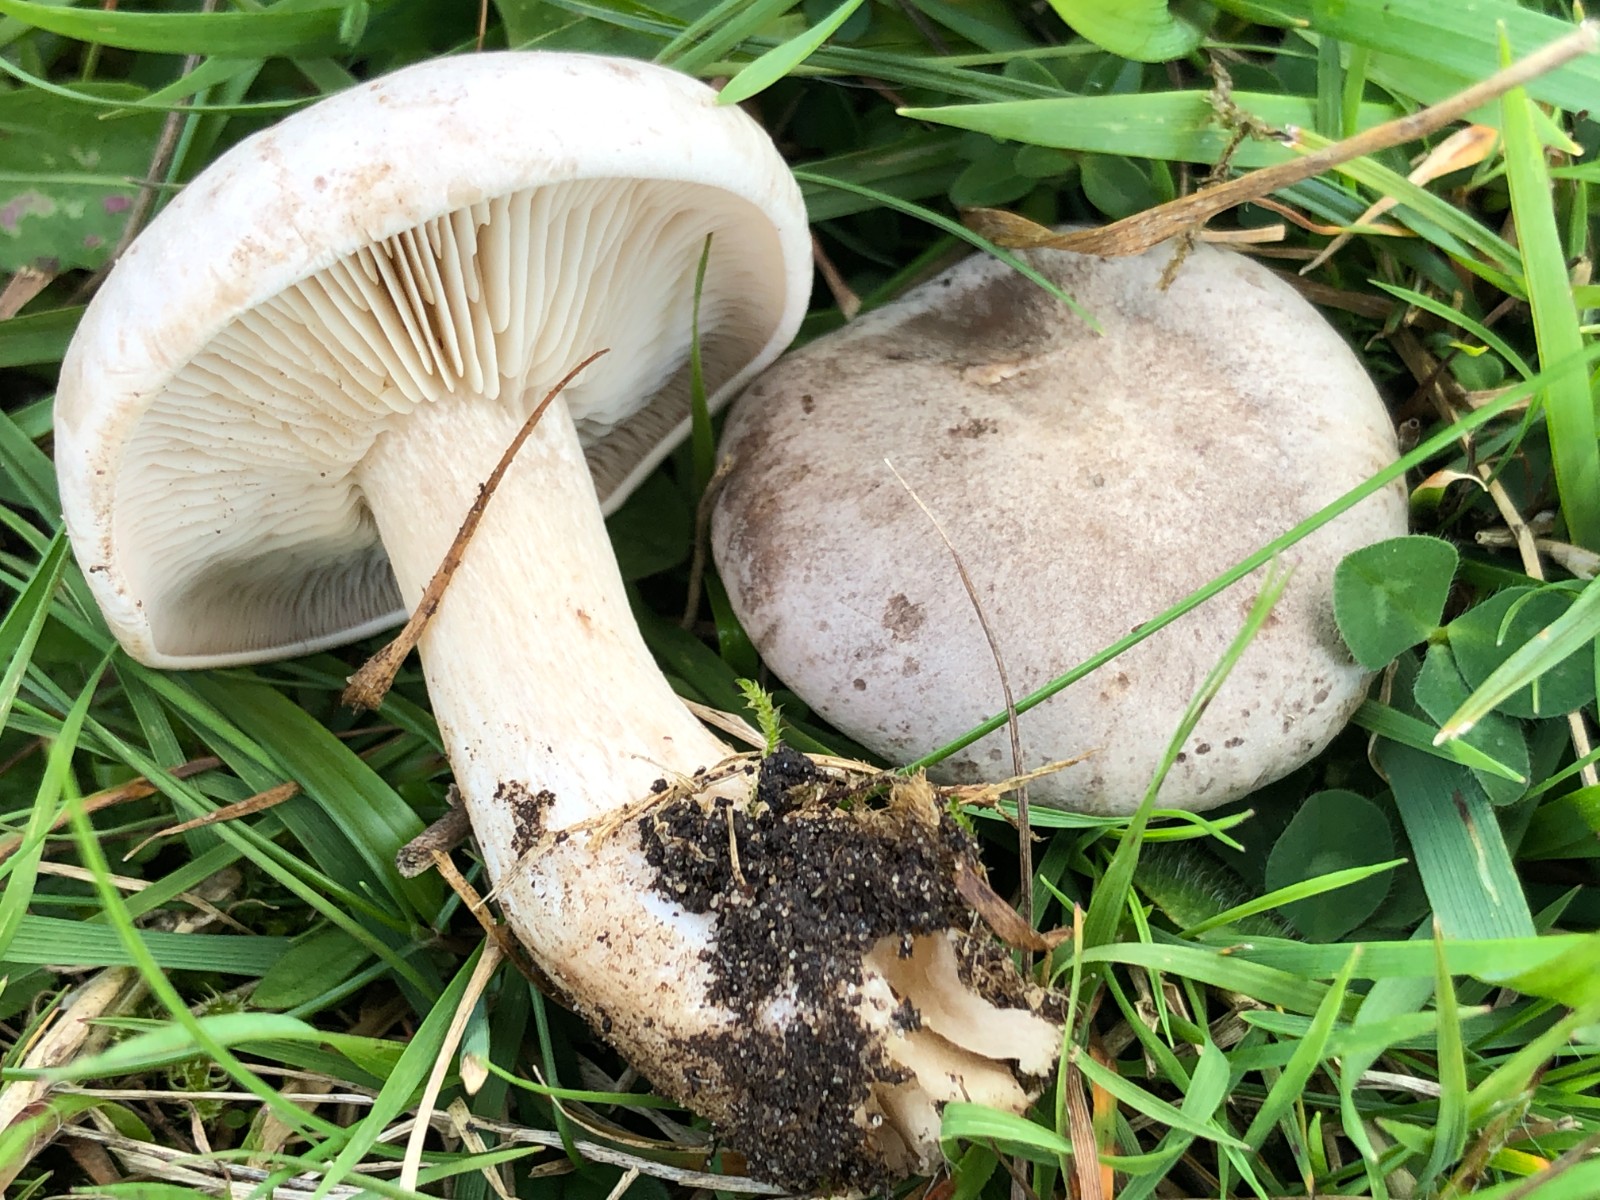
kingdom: Fungi
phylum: Basidiomycota
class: Agaricomycetes
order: Agaricales
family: Tricholomataceae
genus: Lepista
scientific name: Lepista panaeolus
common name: marmoreret hekseringshat
